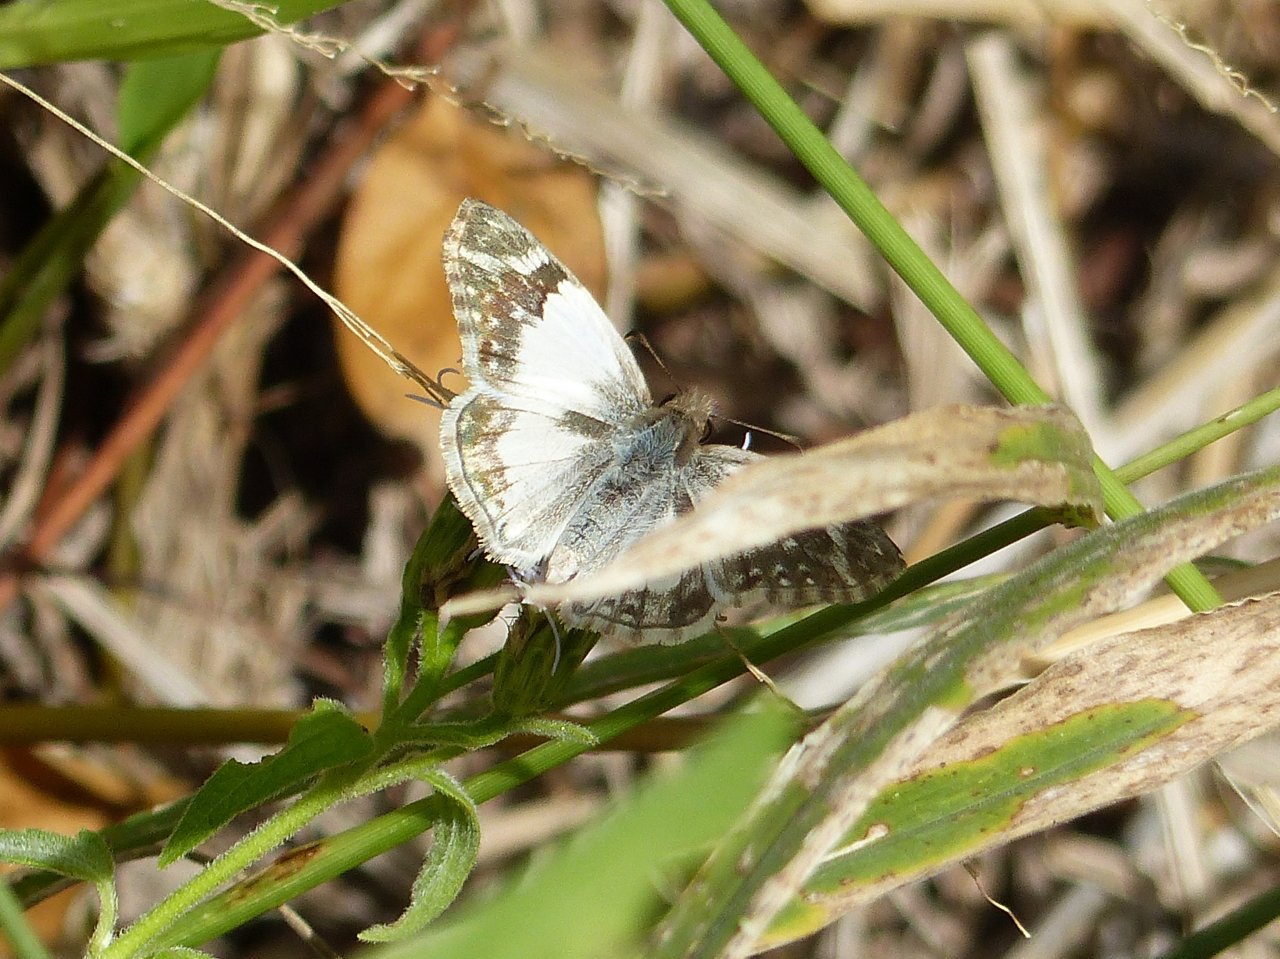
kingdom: Animalia
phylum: Arthropoda
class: Insecta
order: Lepidoptera
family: Hesperiidae
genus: Heliopetes
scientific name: Heliopetes macaira
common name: Turk's-cap White-Skipper
